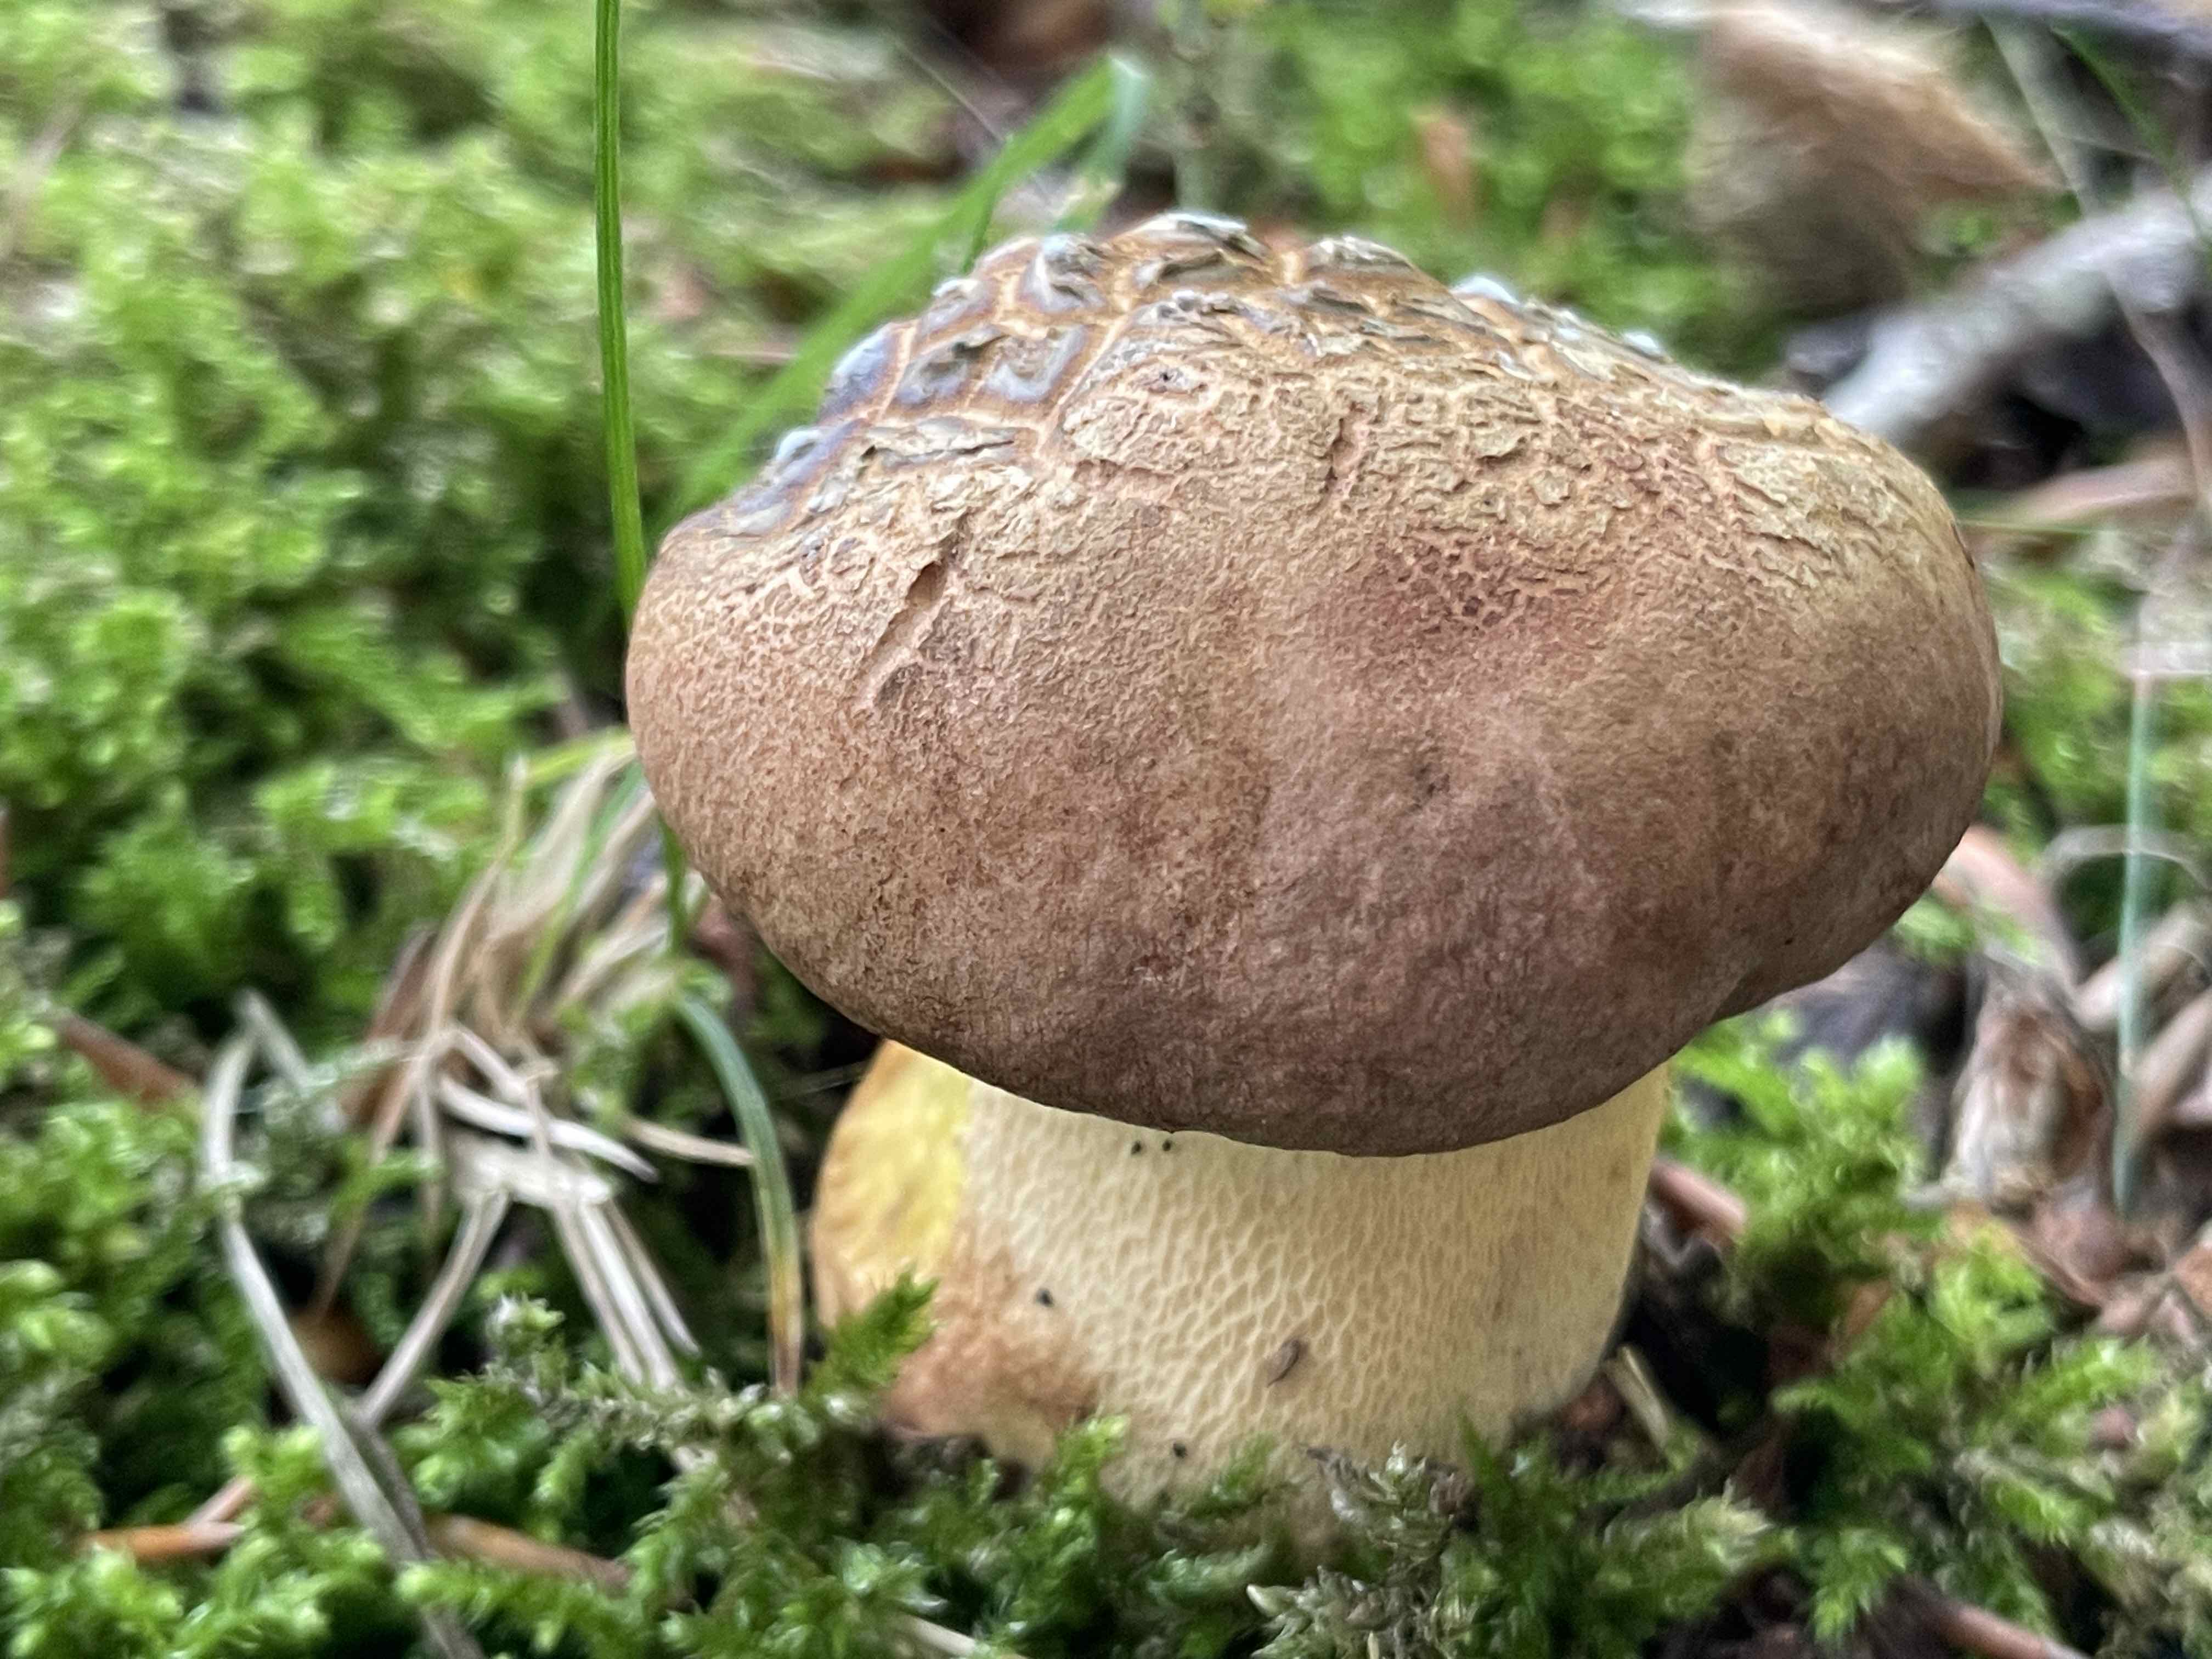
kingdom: Fungi
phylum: Basidiomycota
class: Agaricomycetes
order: Boletales
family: Boletaceae
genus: Butyriboletus
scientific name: Butyriboletus appendiculatus
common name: tenstokket rørhat
